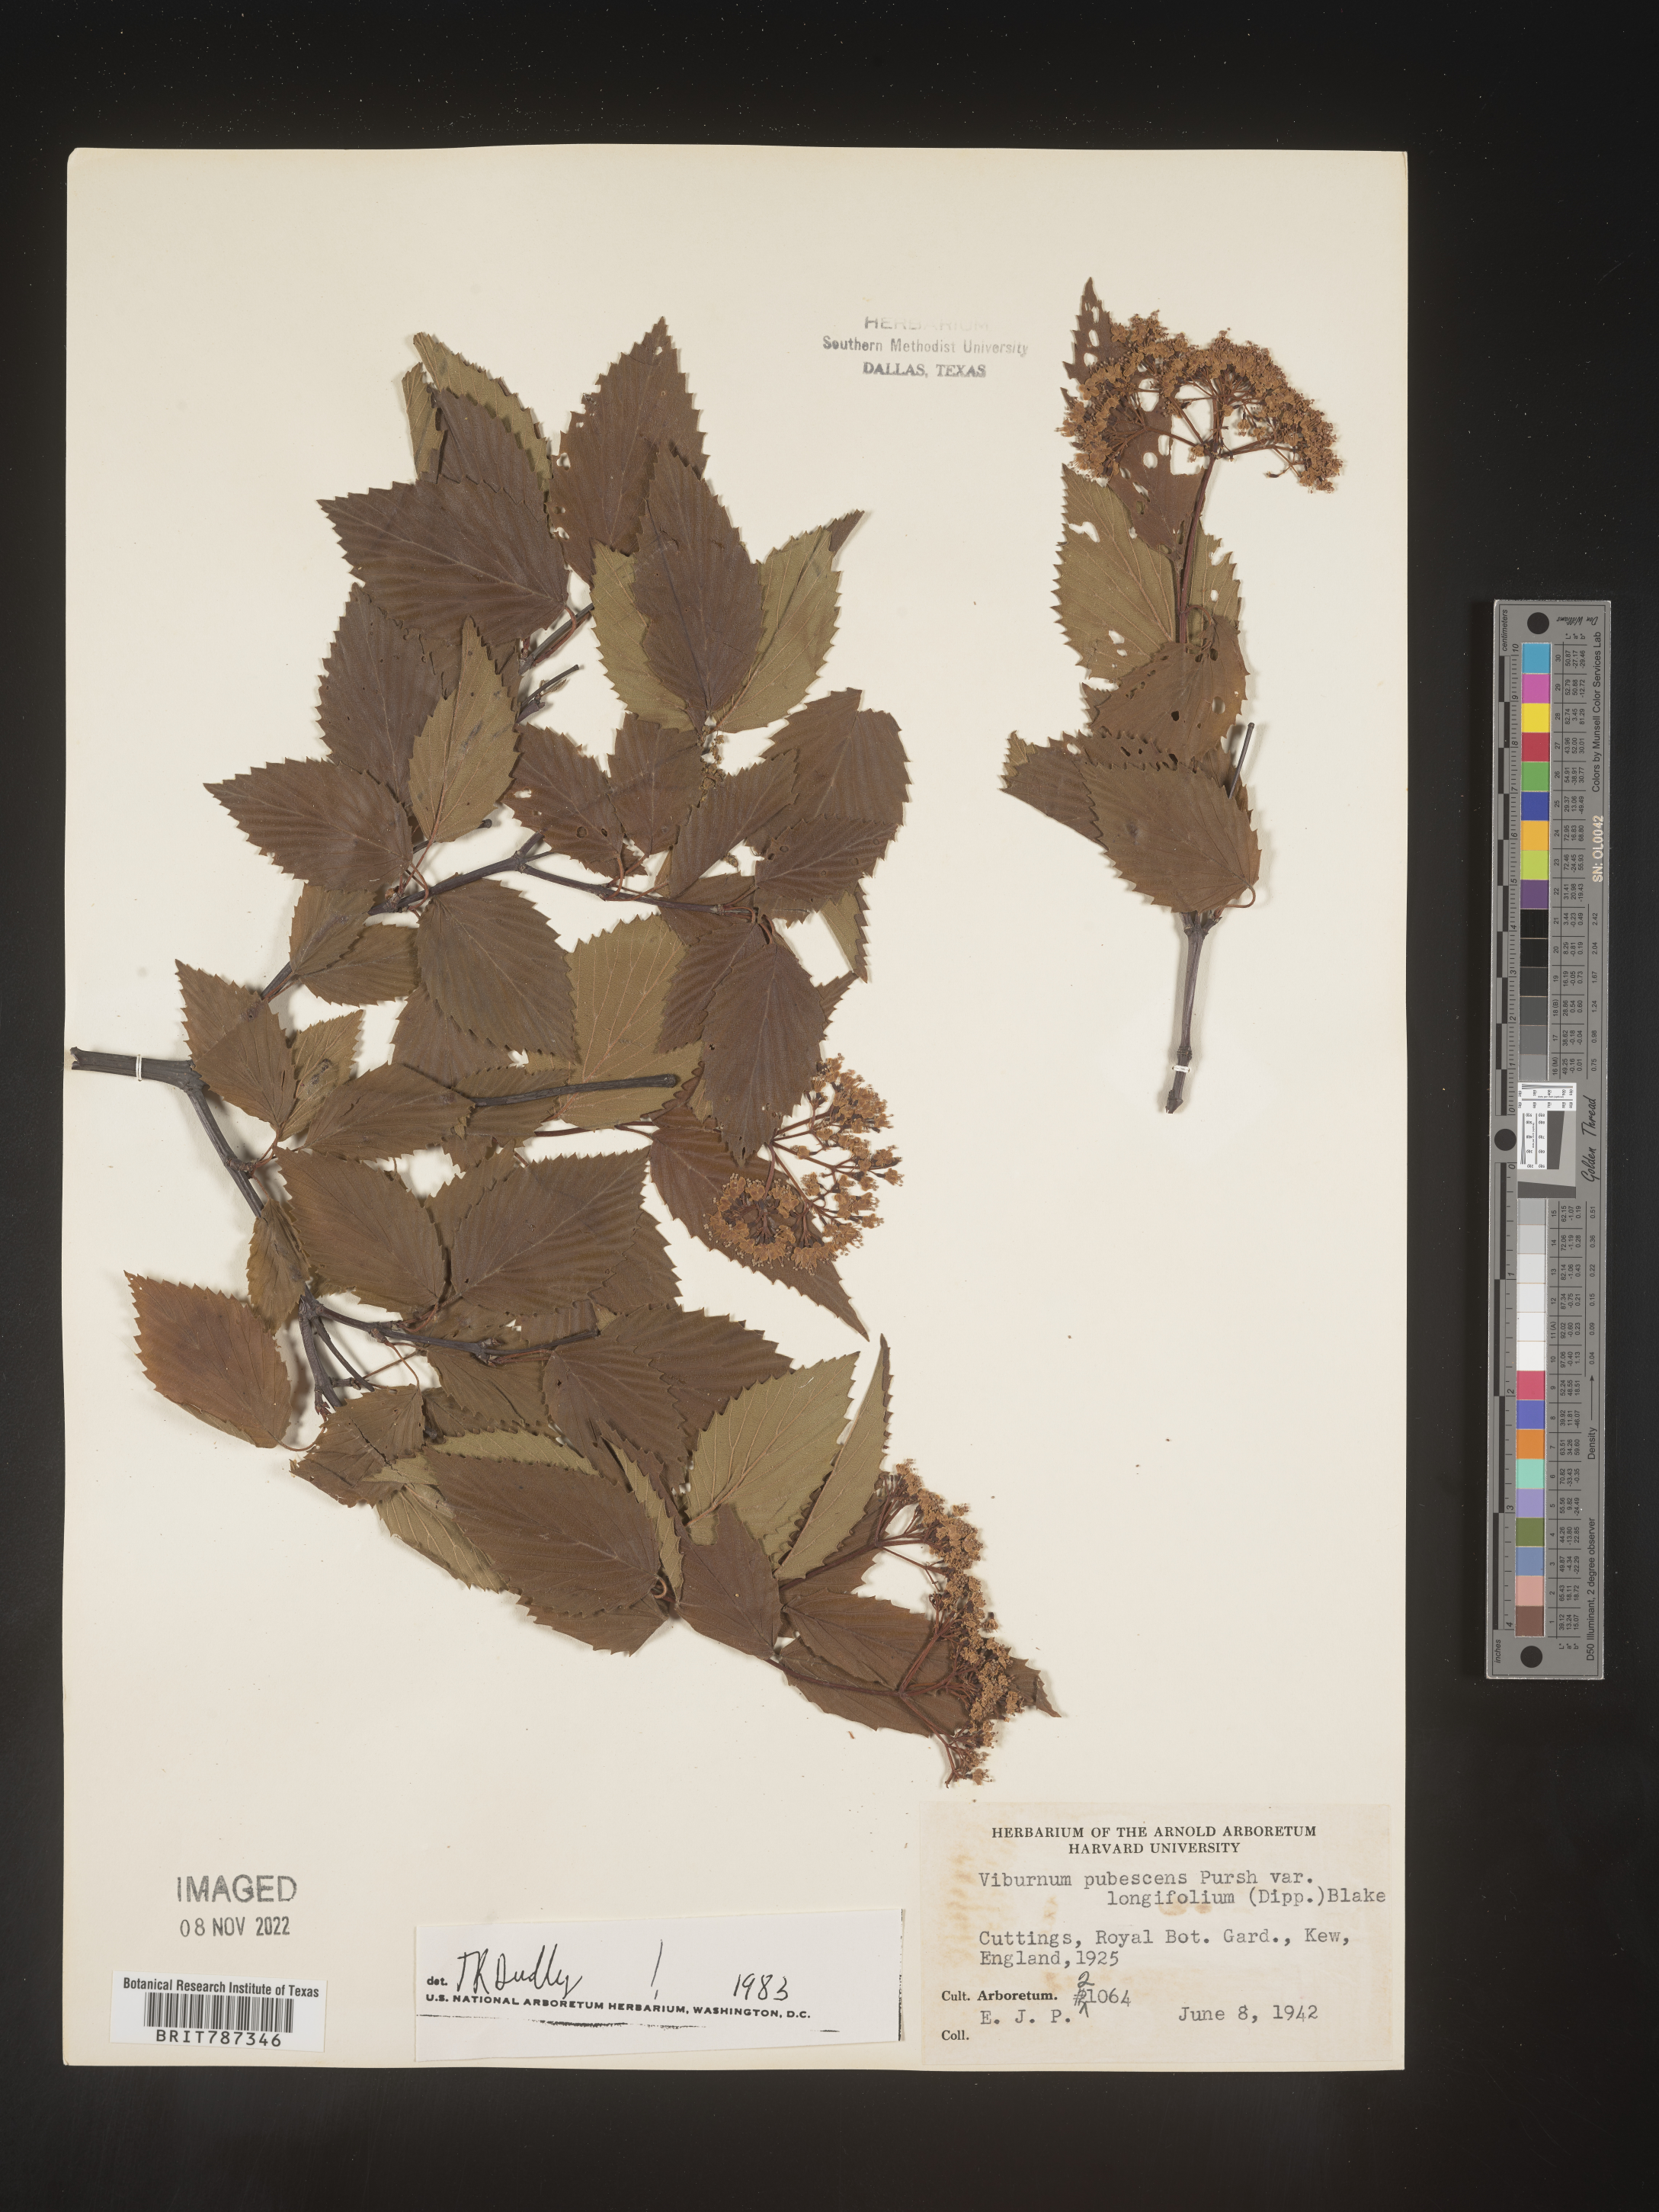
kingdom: Plantae
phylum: Tracheophyta
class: Magnoliopsida
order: Dipsacales
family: Viburnaceae
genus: Viburnum
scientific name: Viburnum
